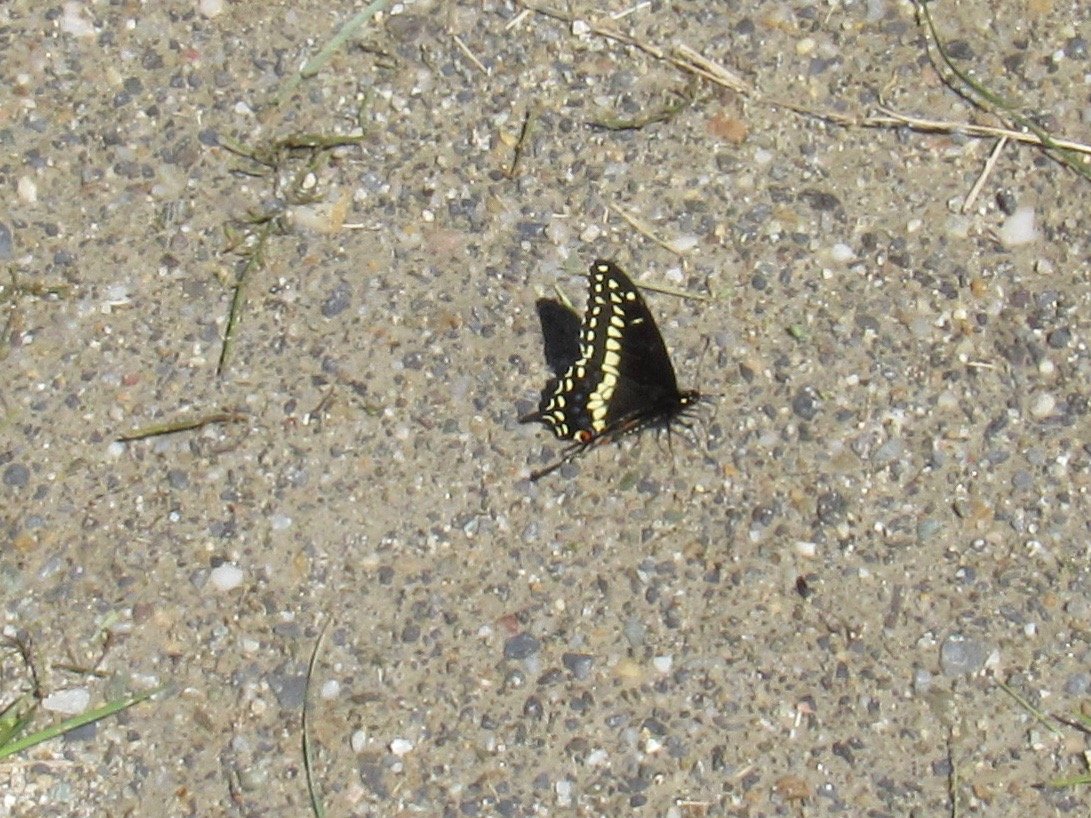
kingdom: Animalia
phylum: Arthropoda
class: Insecta
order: Lepidoptera
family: Papilionidae
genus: Papilio
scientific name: Papilio polyxenes
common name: Black Swallowtail
